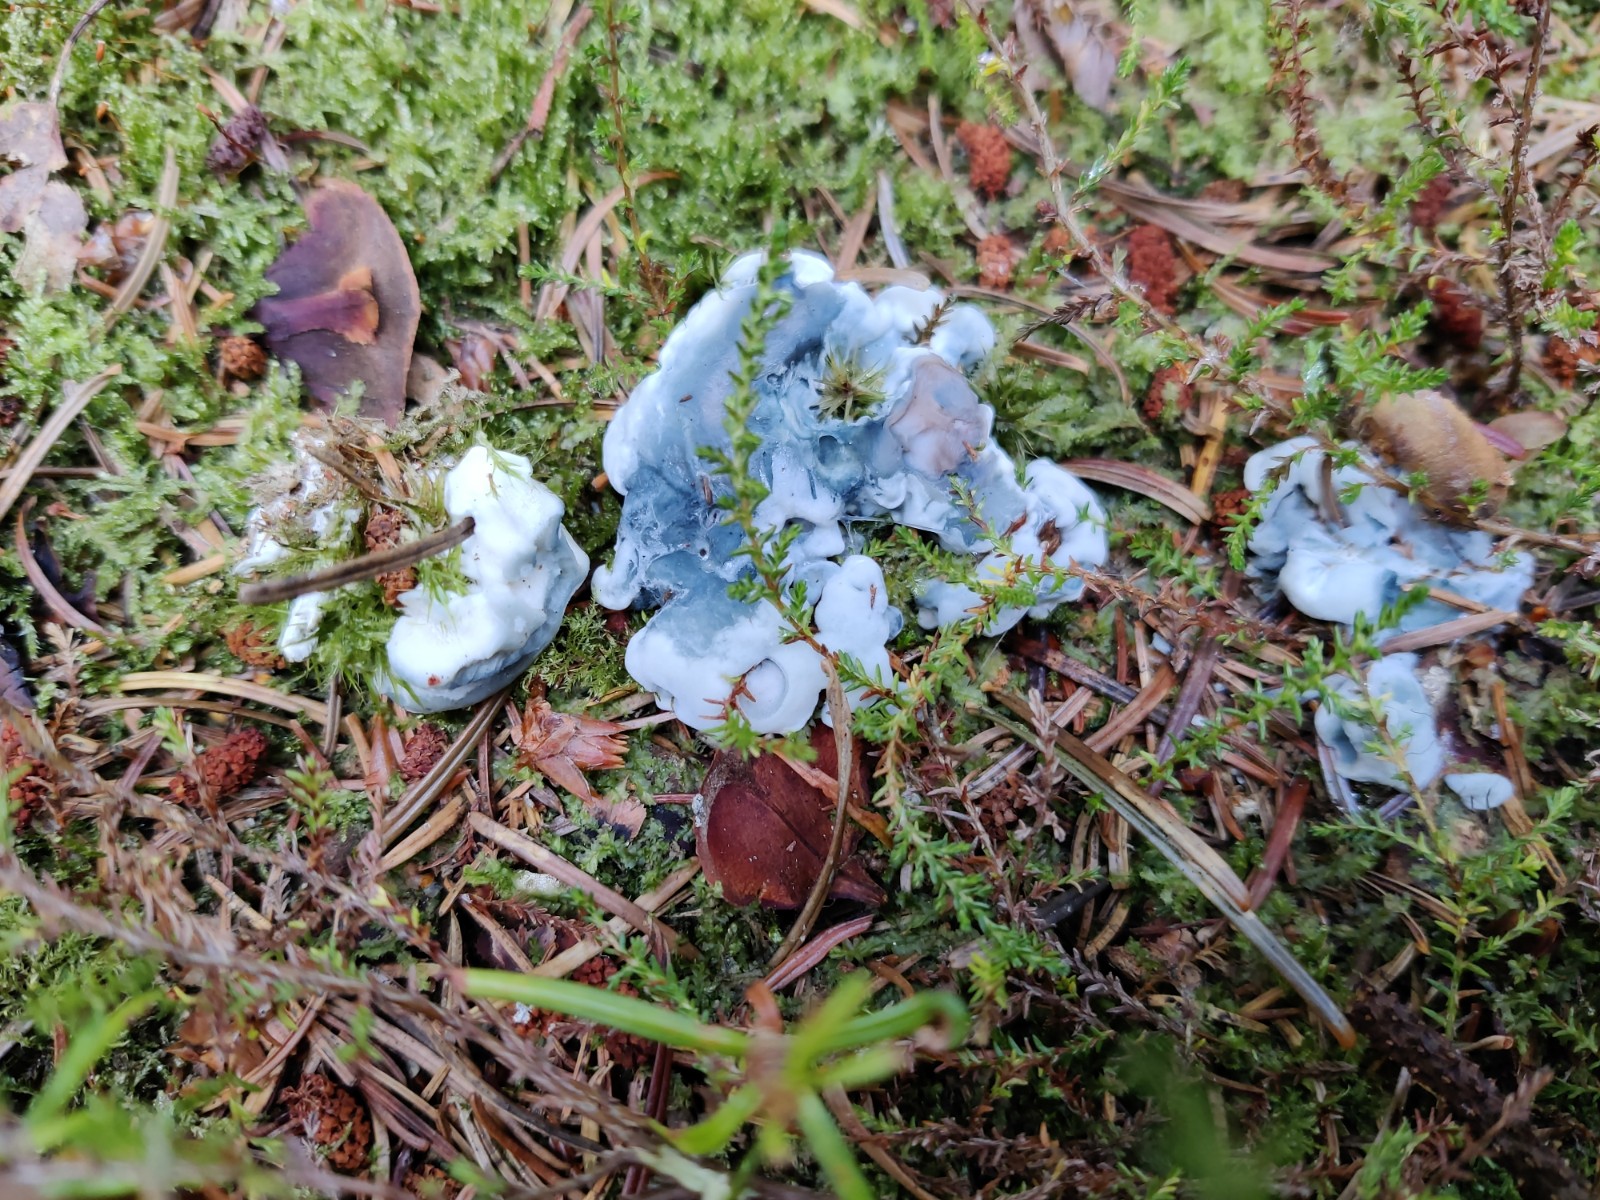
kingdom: Fungi
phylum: Basidiomycota
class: Agaricomycetes
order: Polyporales
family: Polyporaceae
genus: Cyanosporus
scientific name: Cyanosporus caesius
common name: blålig kødporesvamp
